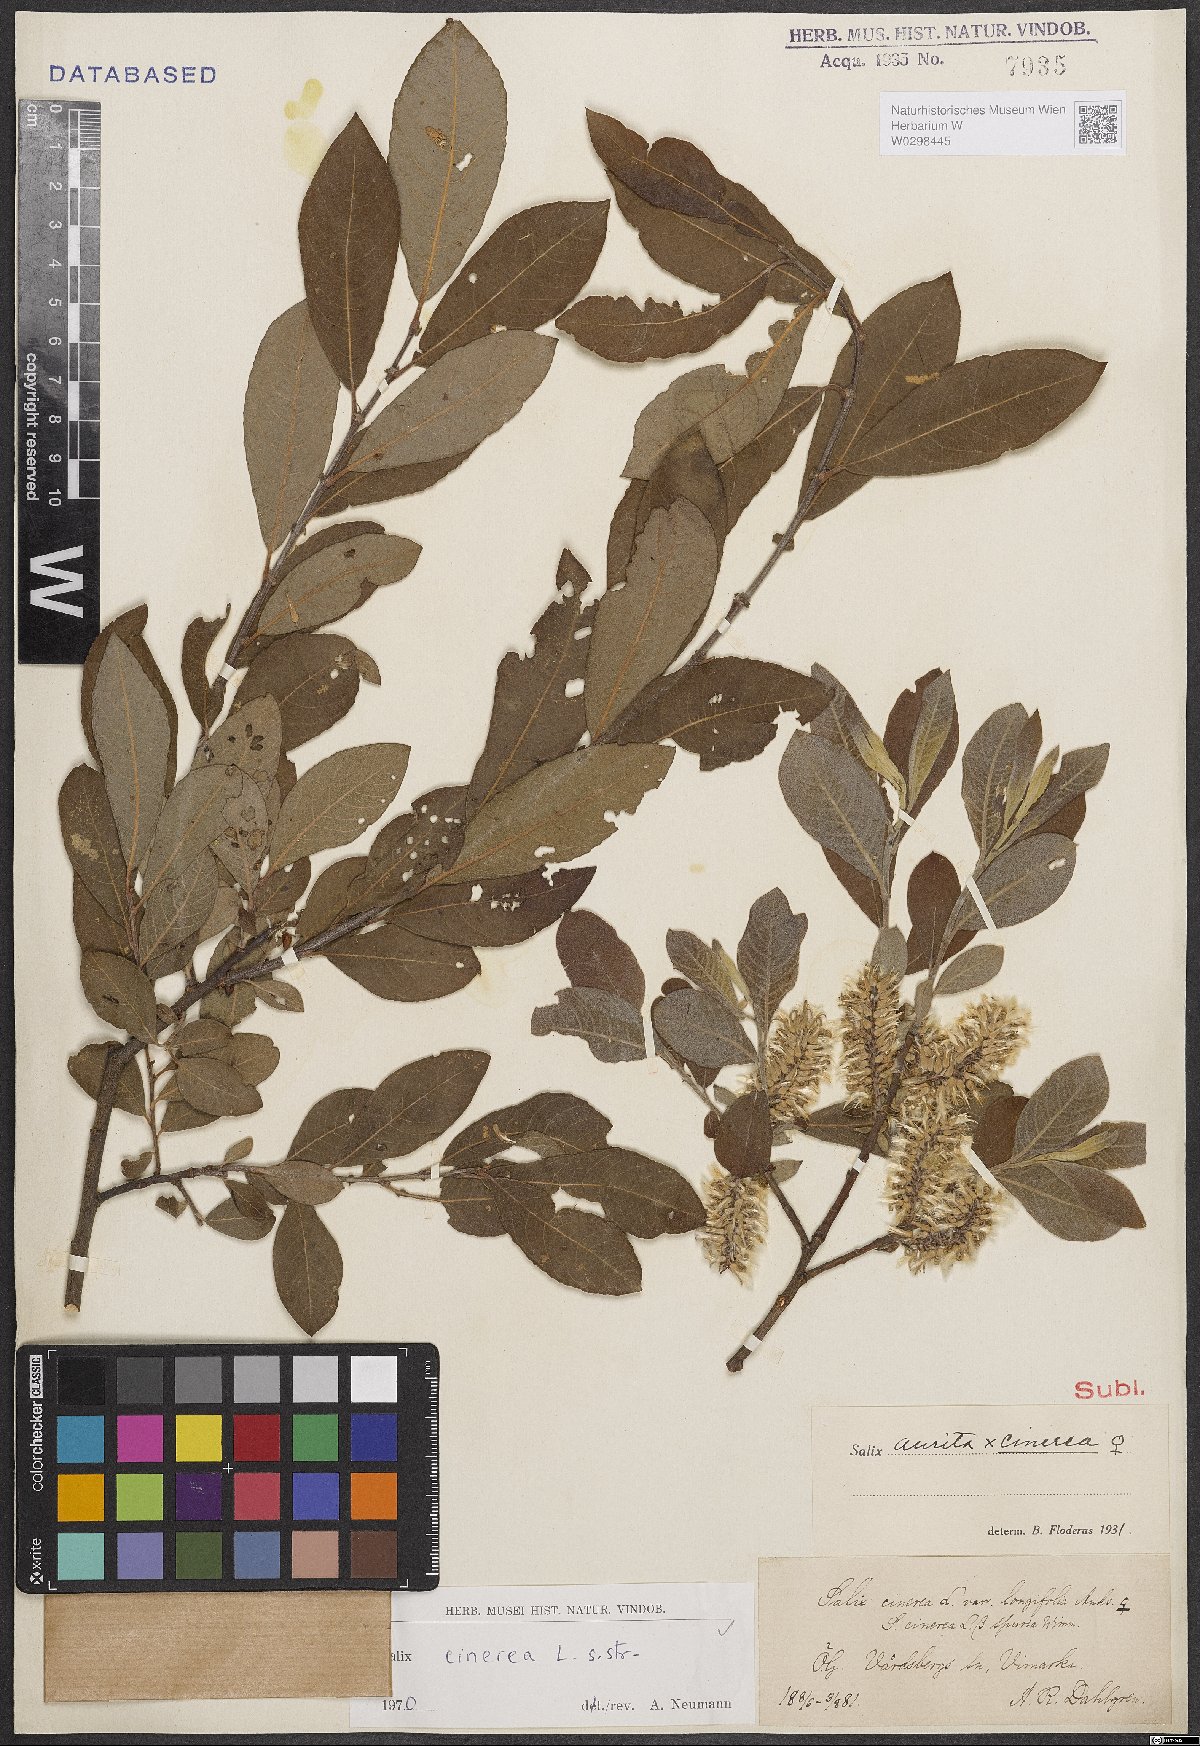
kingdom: Plantae
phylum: Tracheophyta
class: Magnoliopsida
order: Malpighiales
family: Salicaceae
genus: Salix
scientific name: Salix cinerea
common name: Common sallow
